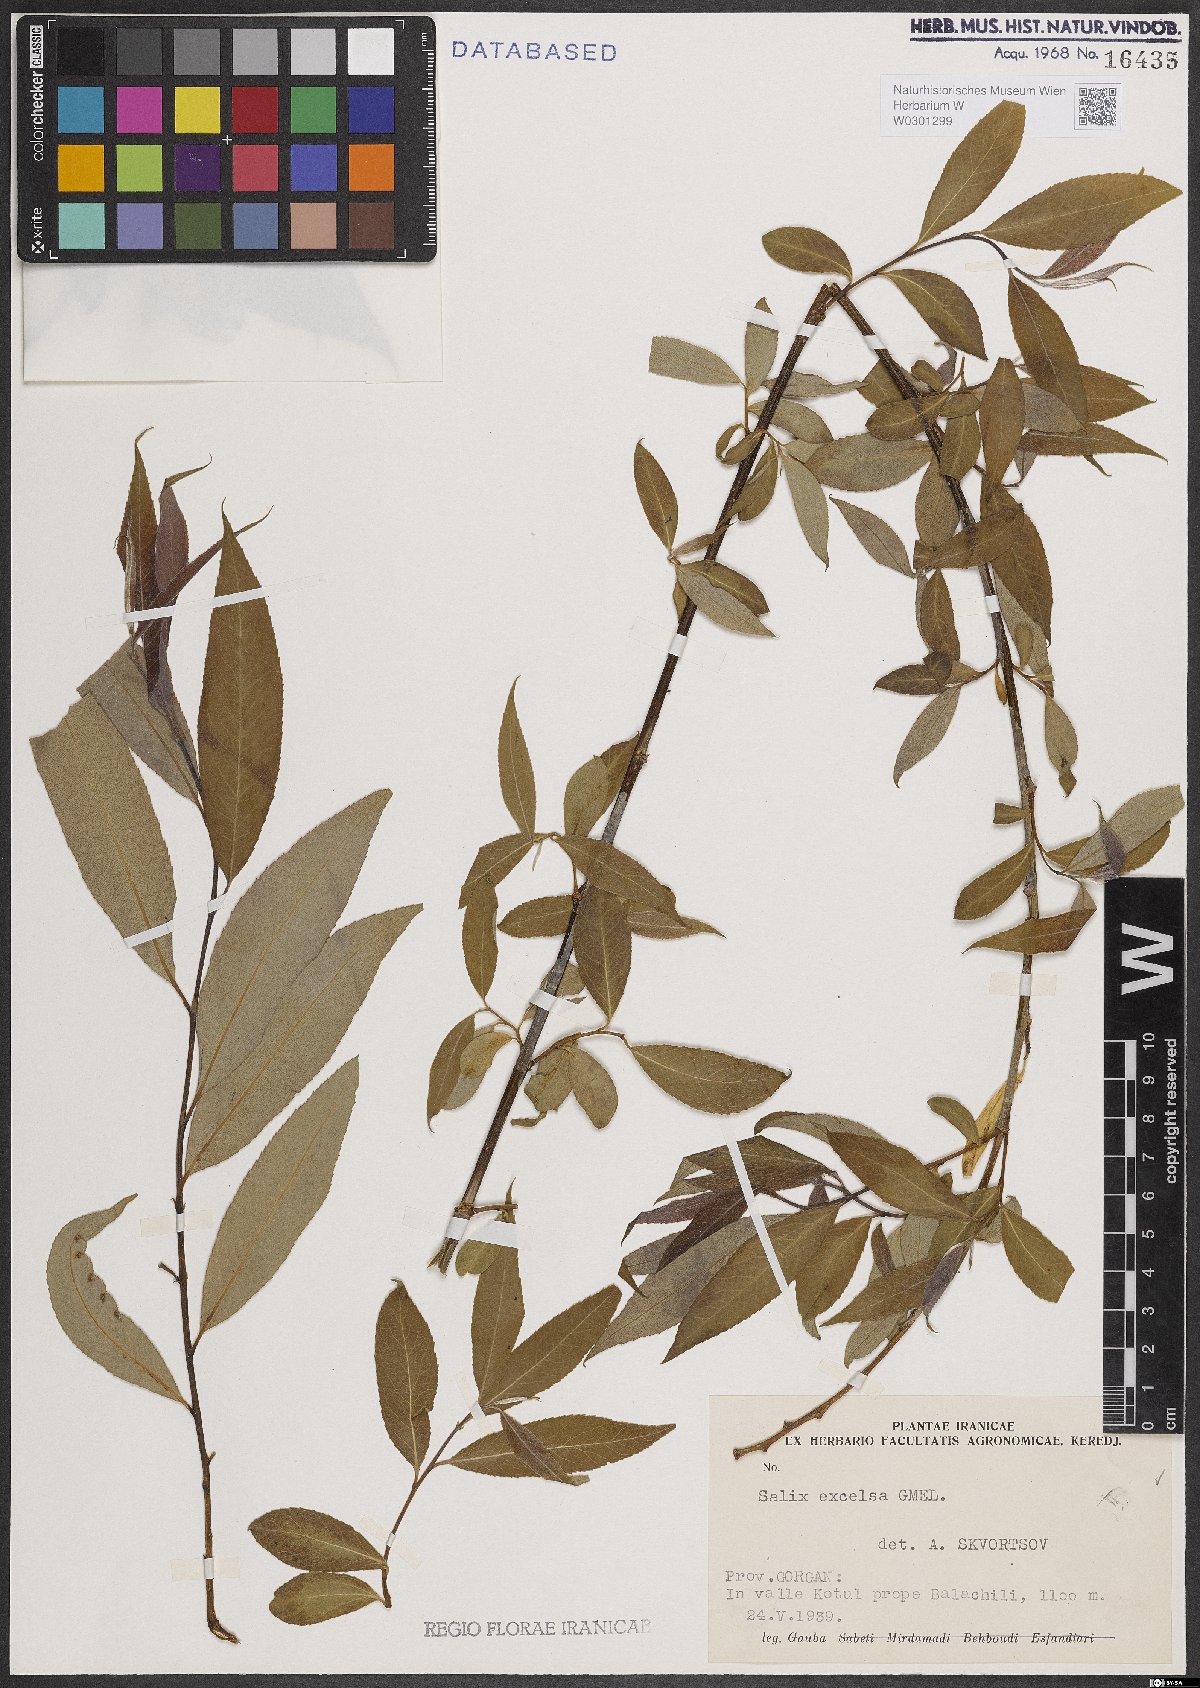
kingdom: Plantae
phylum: Tracheophyta
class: Magnoliopsida
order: Malpighiales
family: Salicaceae
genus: Salix
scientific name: Salix excelsa
